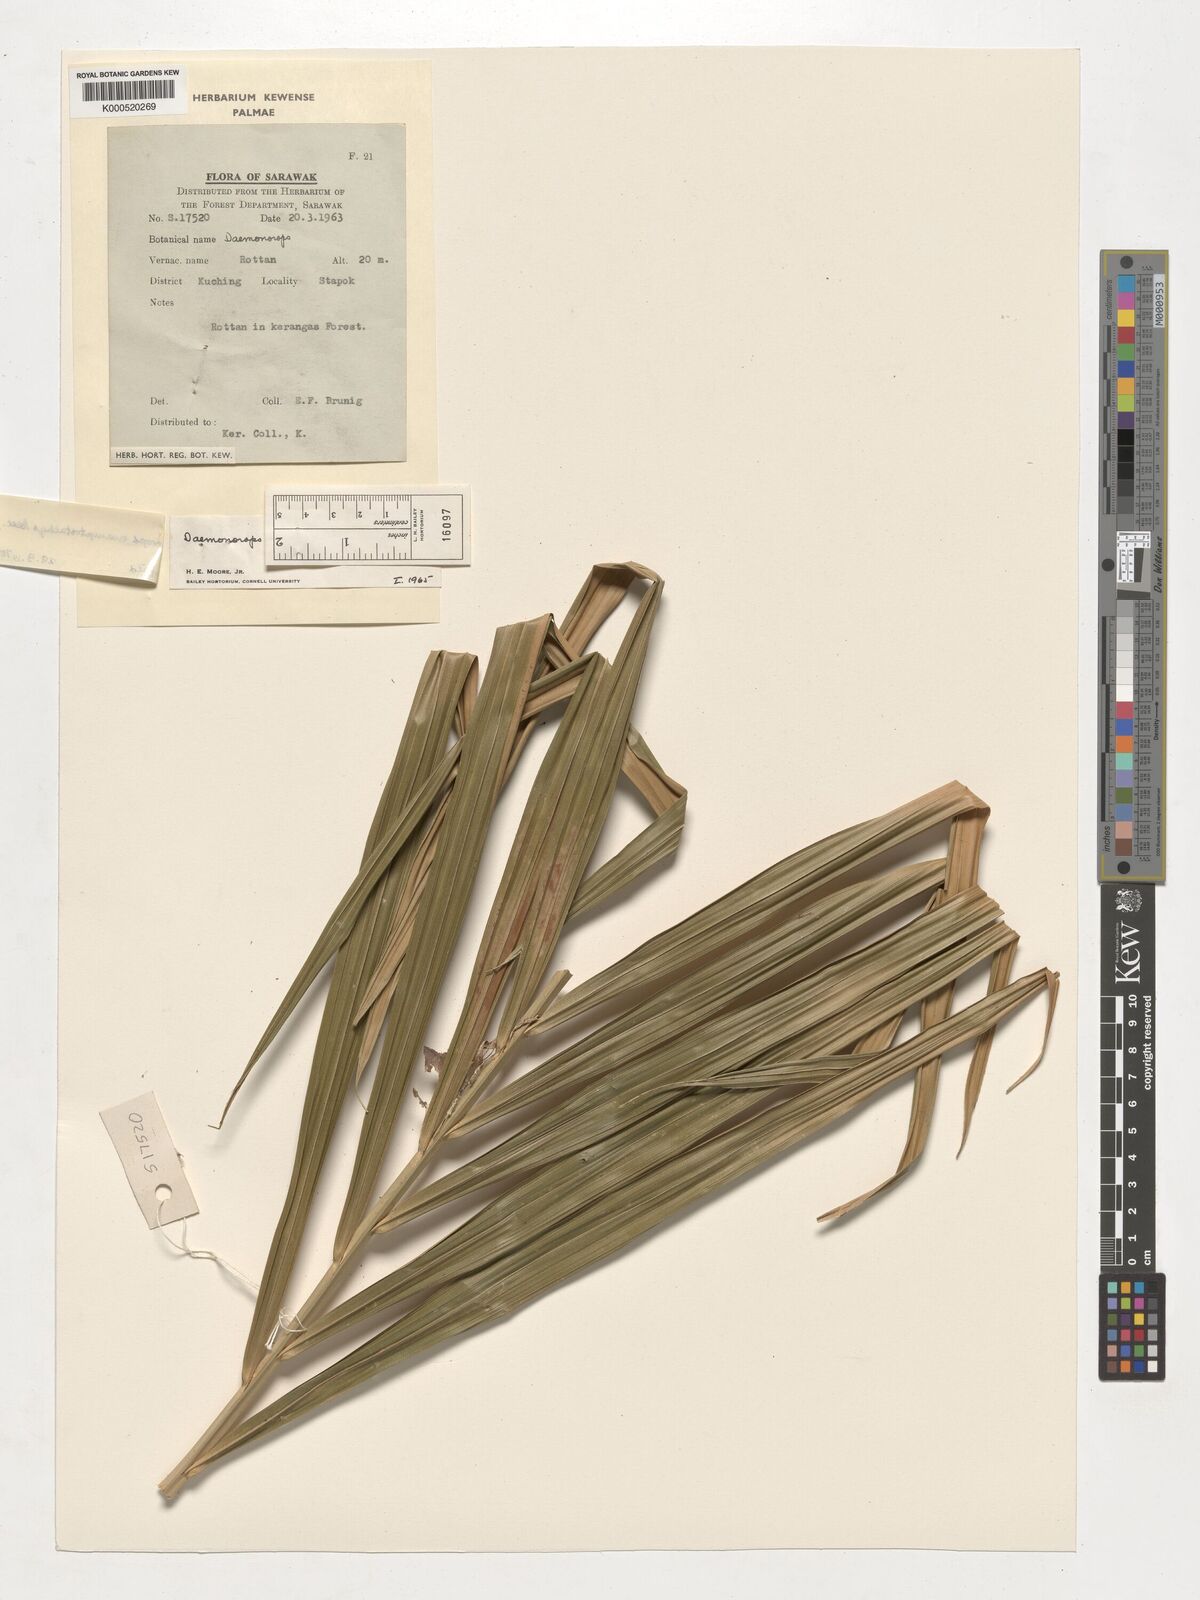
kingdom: Plantae
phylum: Tracheophyta
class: Liliopsida
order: Arecales
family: Arecaceae
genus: Calamus
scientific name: Calamus acamptostachys
